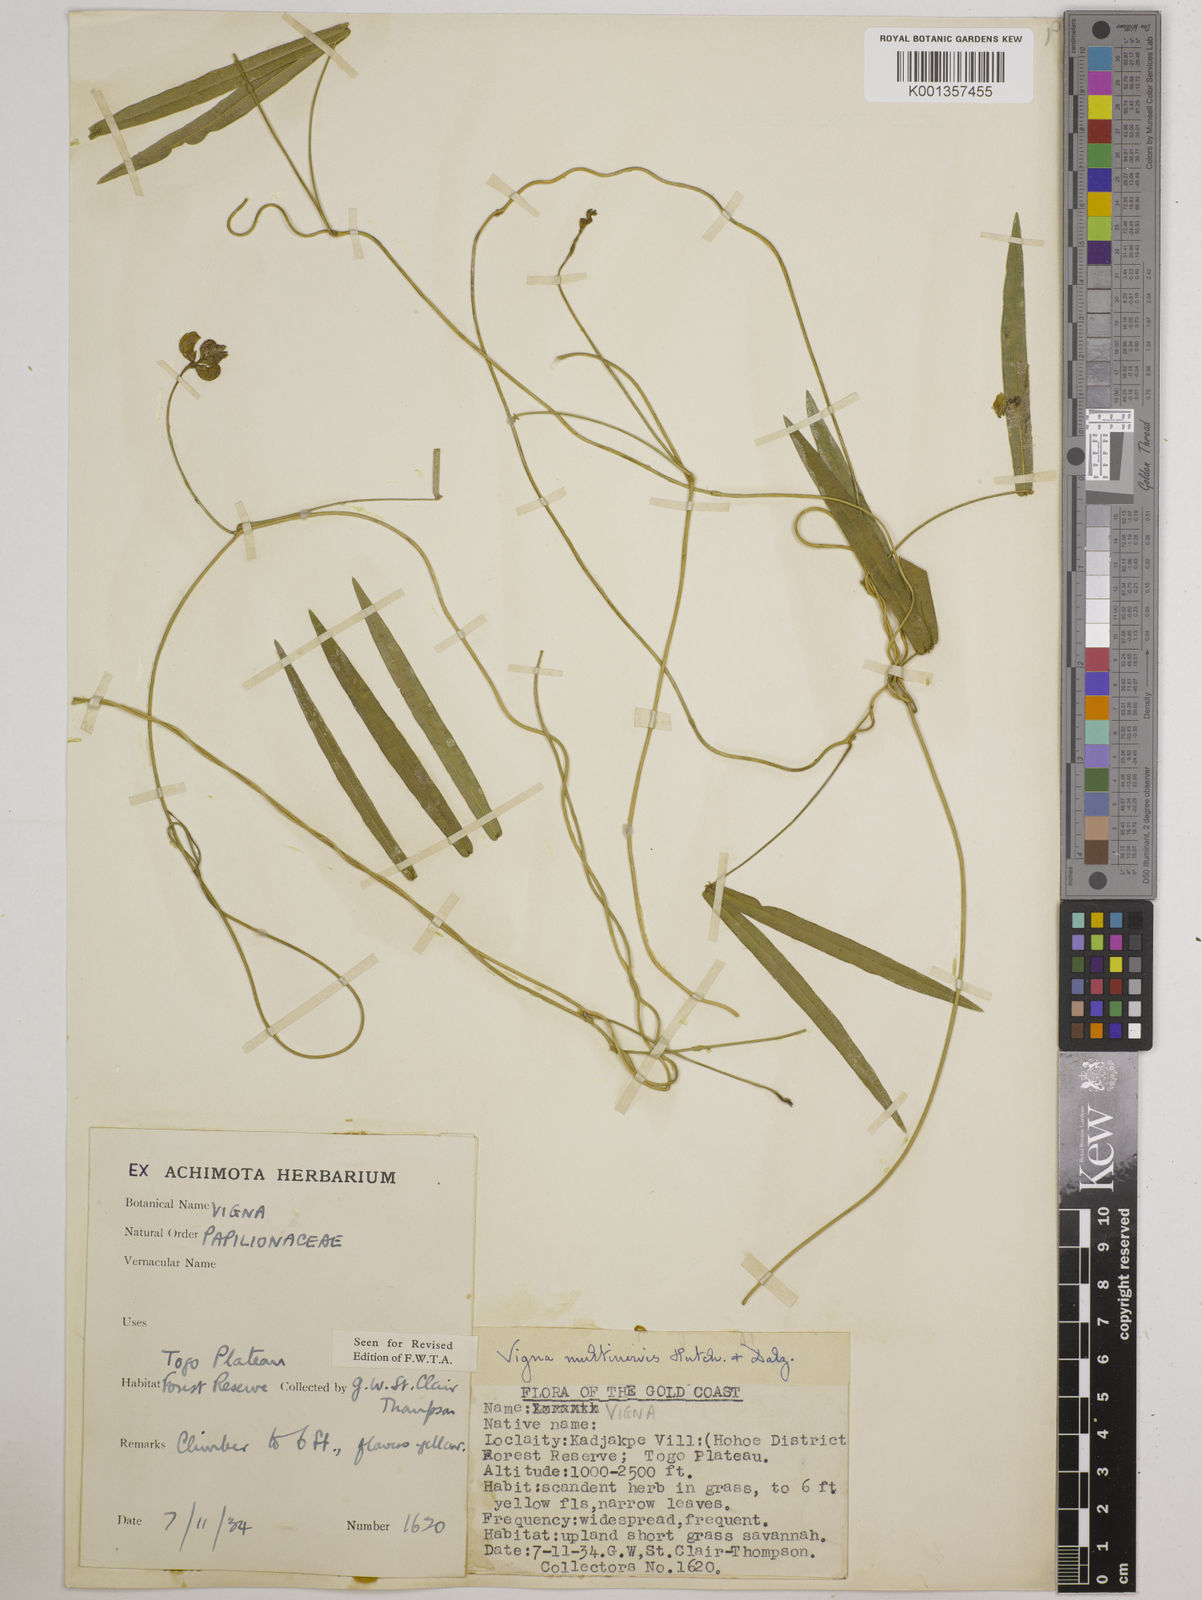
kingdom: Plantae
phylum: Tracheophyta
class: Magnoliopsida
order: Fabales
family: Fabaceae
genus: Vigna
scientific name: Vigna multinervis
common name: Fula-pulaar
